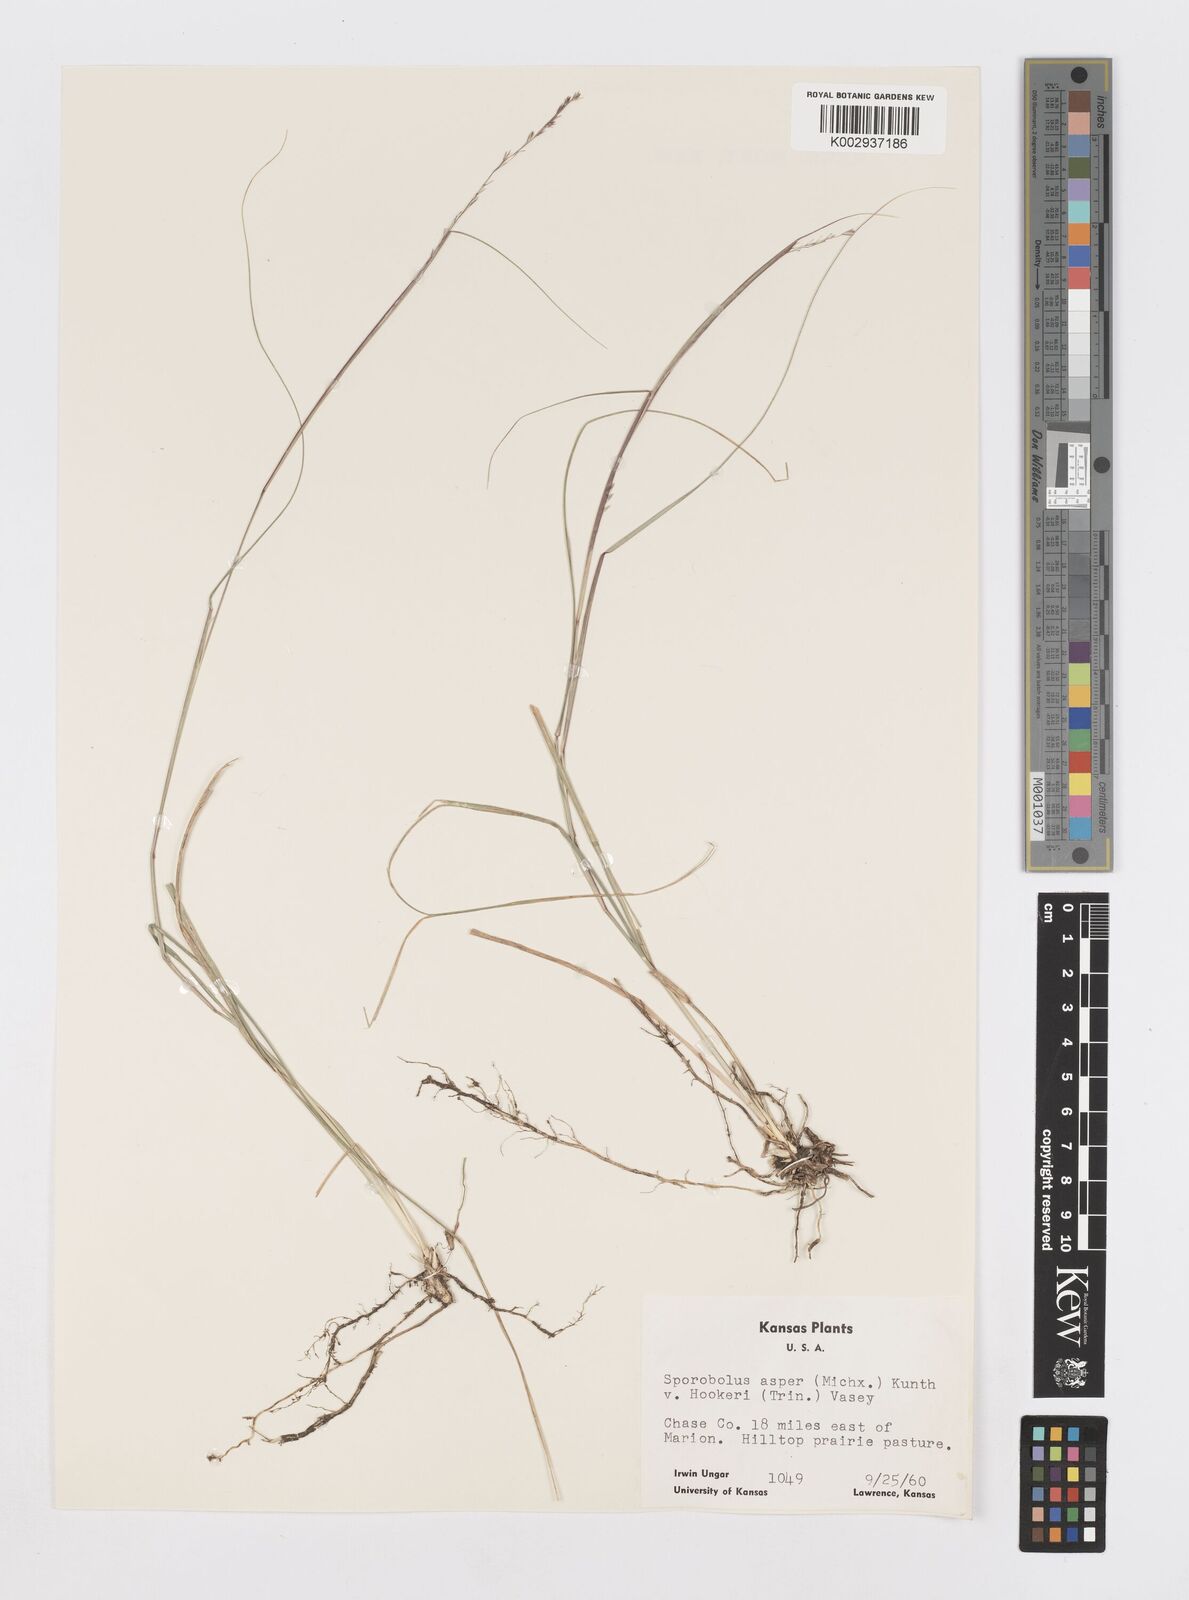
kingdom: Plantae
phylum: Tracheophyta
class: Liliopsida
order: Poales
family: Poaceae
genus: Sporobolus
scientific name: Sporobolus compositus
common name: Rough dropseed
